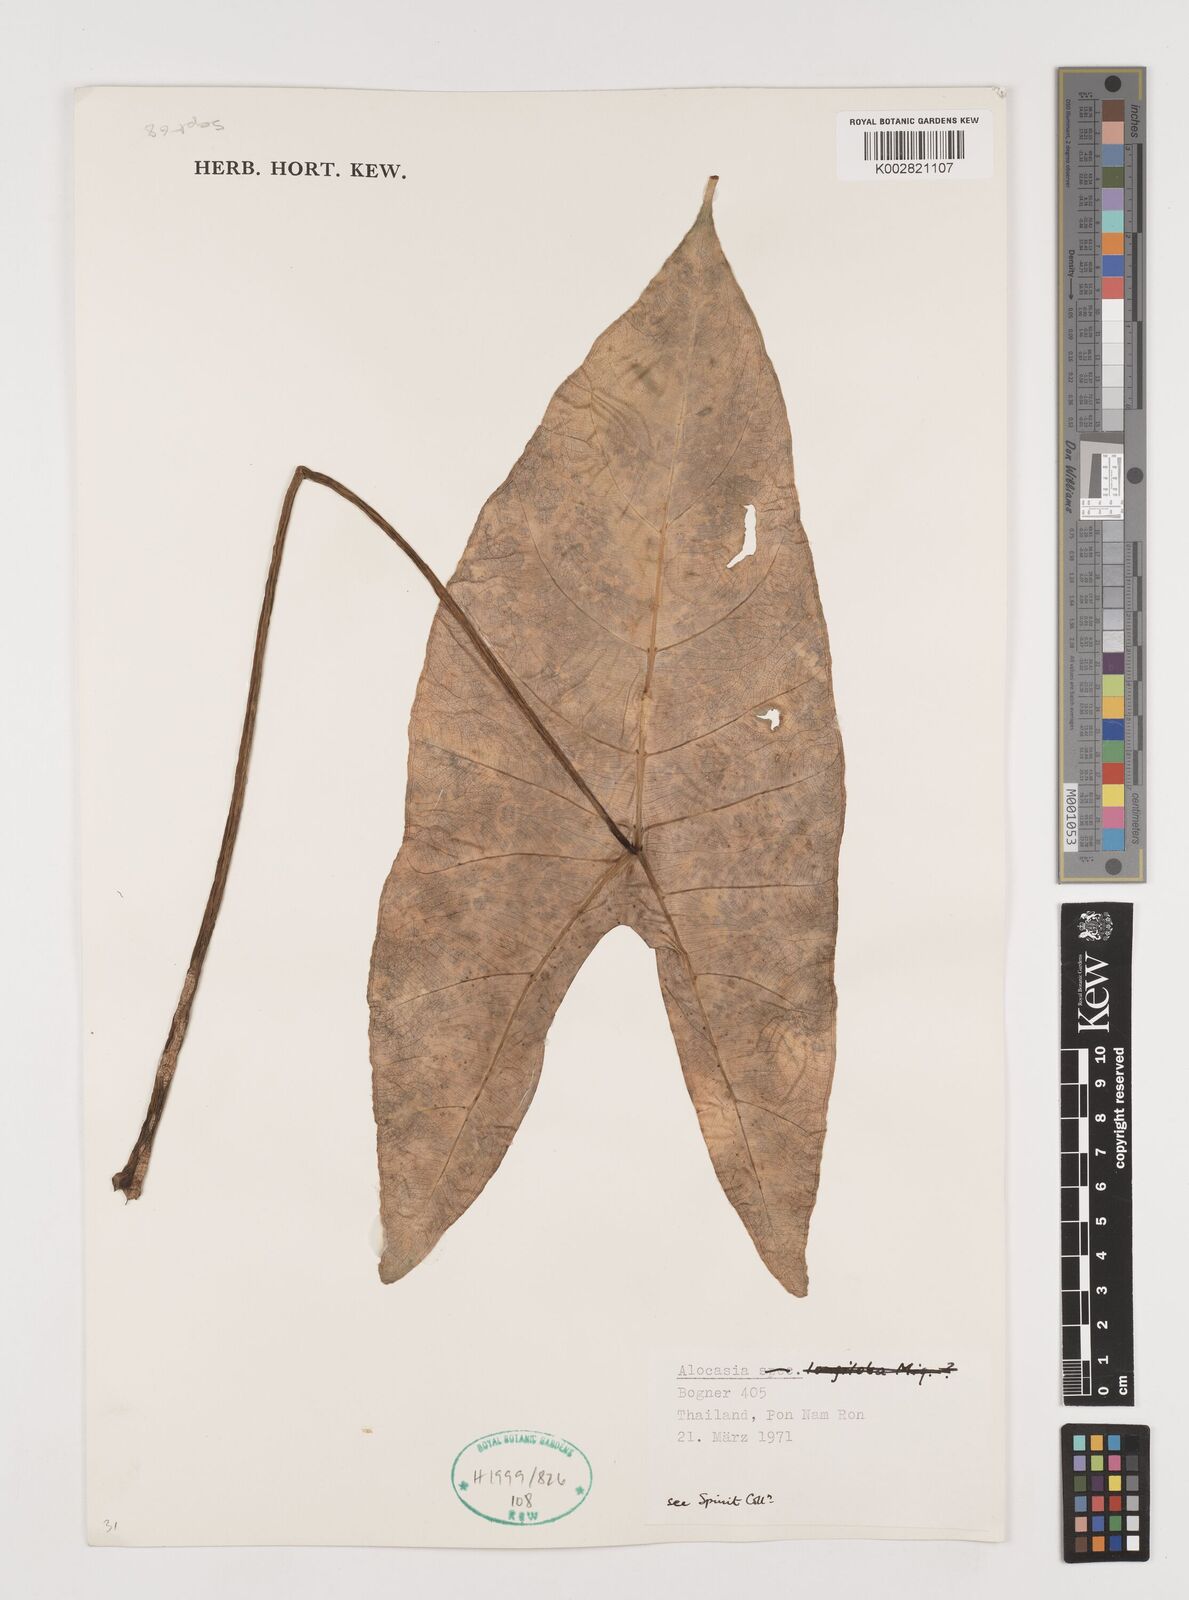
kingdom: Plantae
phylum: Tracheophyta
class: Liliopsida
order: Alismatales
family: Araceae
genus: Alocasia
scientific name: Alocasia
